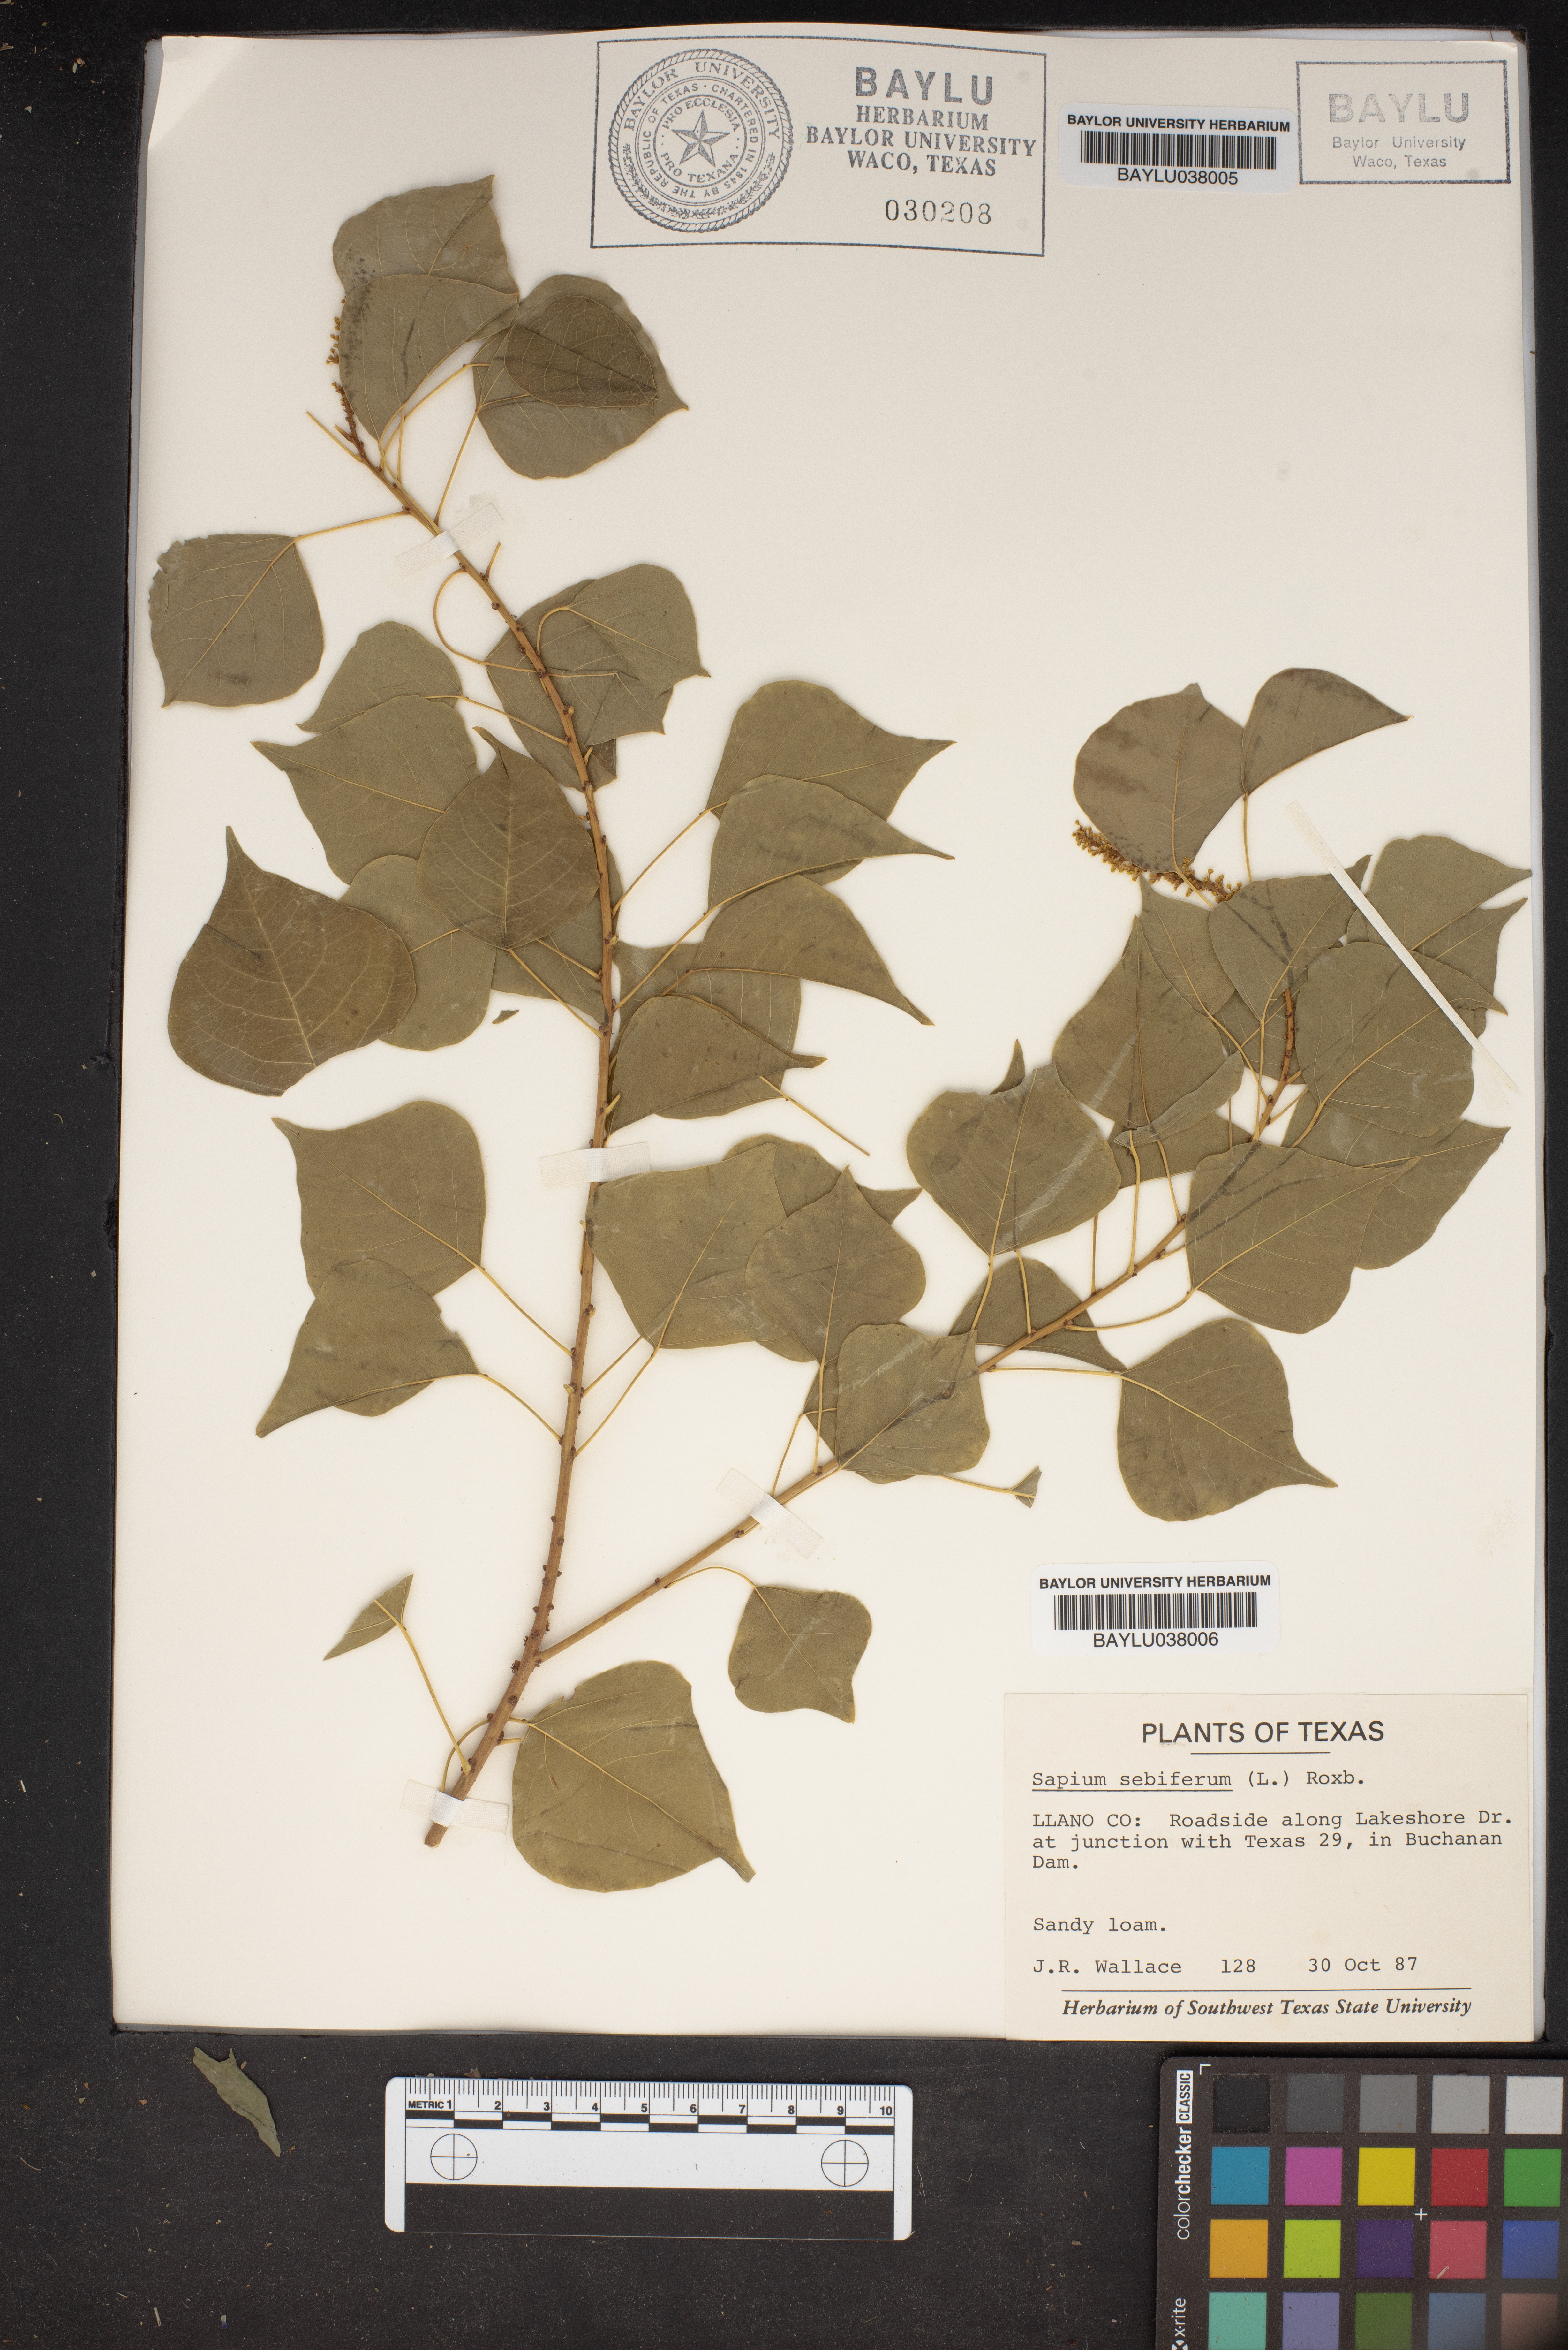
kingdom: Plantae
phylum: Tracheophyta
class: Magnoliopsida
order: Malpighiales
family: Euphorbiaceae
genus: Triadica
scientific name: Triadica sebifera
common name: Chinese tallow
